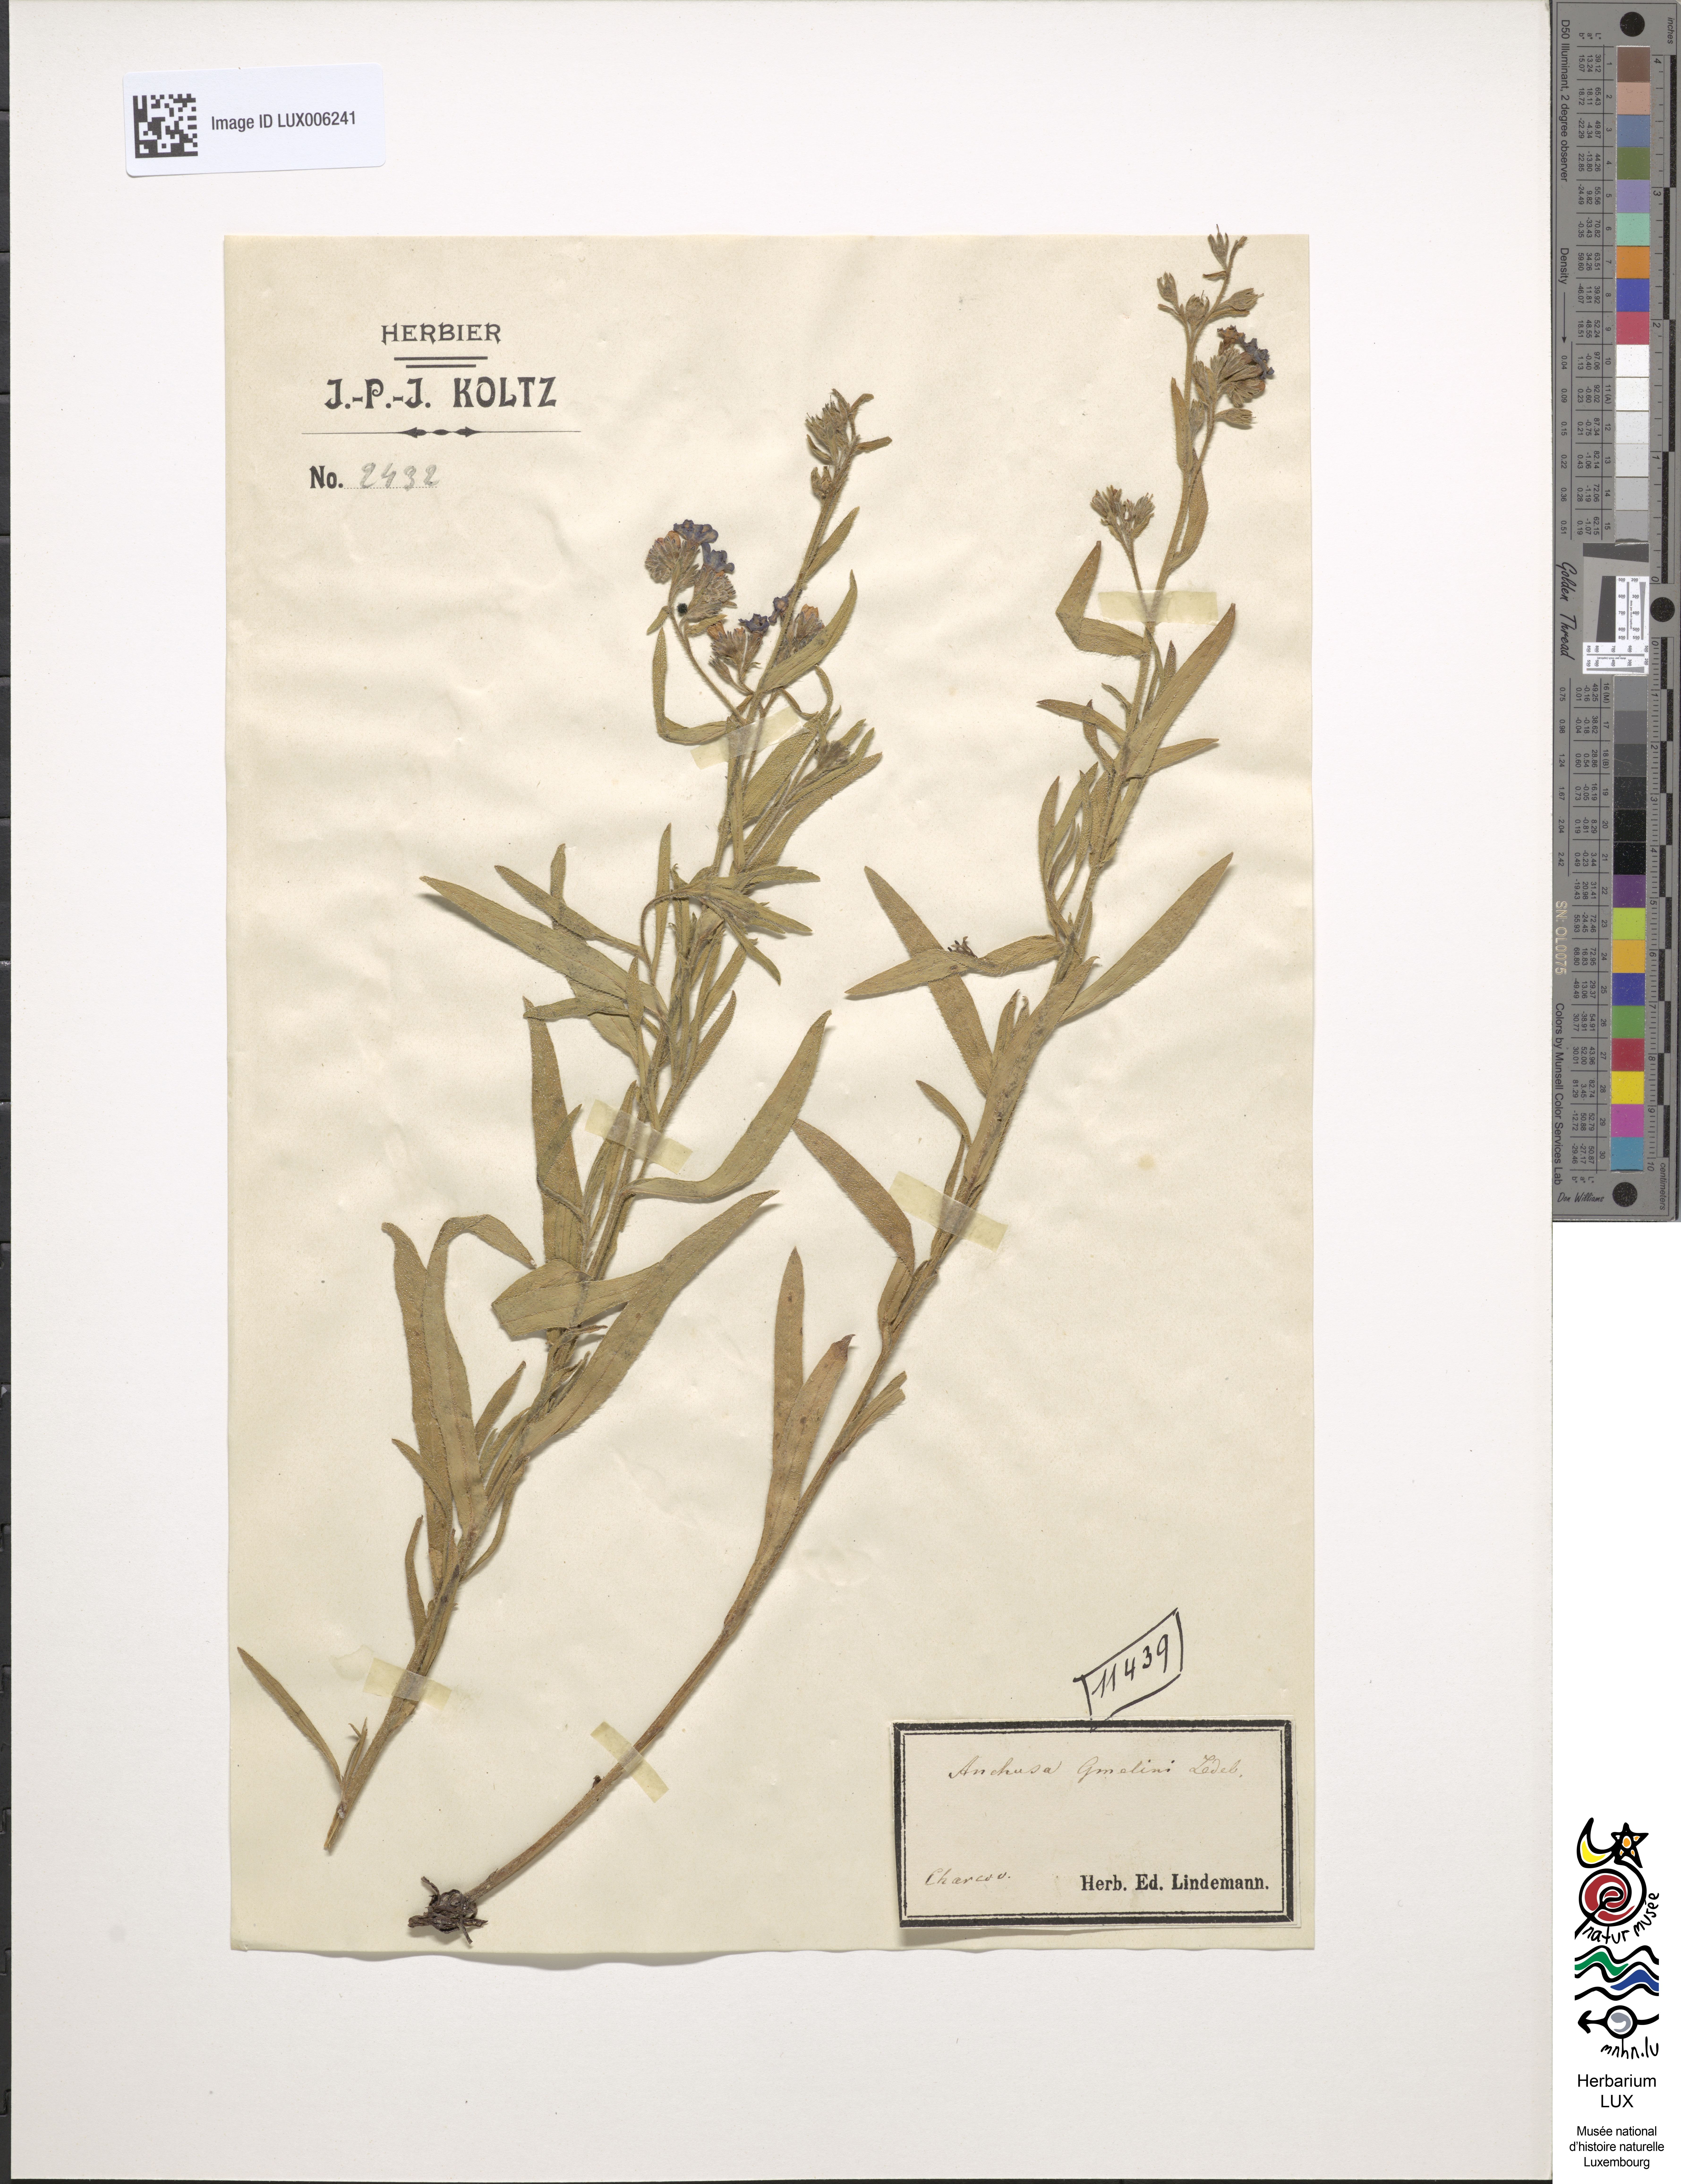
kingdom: Plantae
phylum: Tracheophyta
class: Magnoliopsida
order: Boraginales
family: Boraginaceae
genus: Anchusa
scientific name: Anchusa gmelinii
